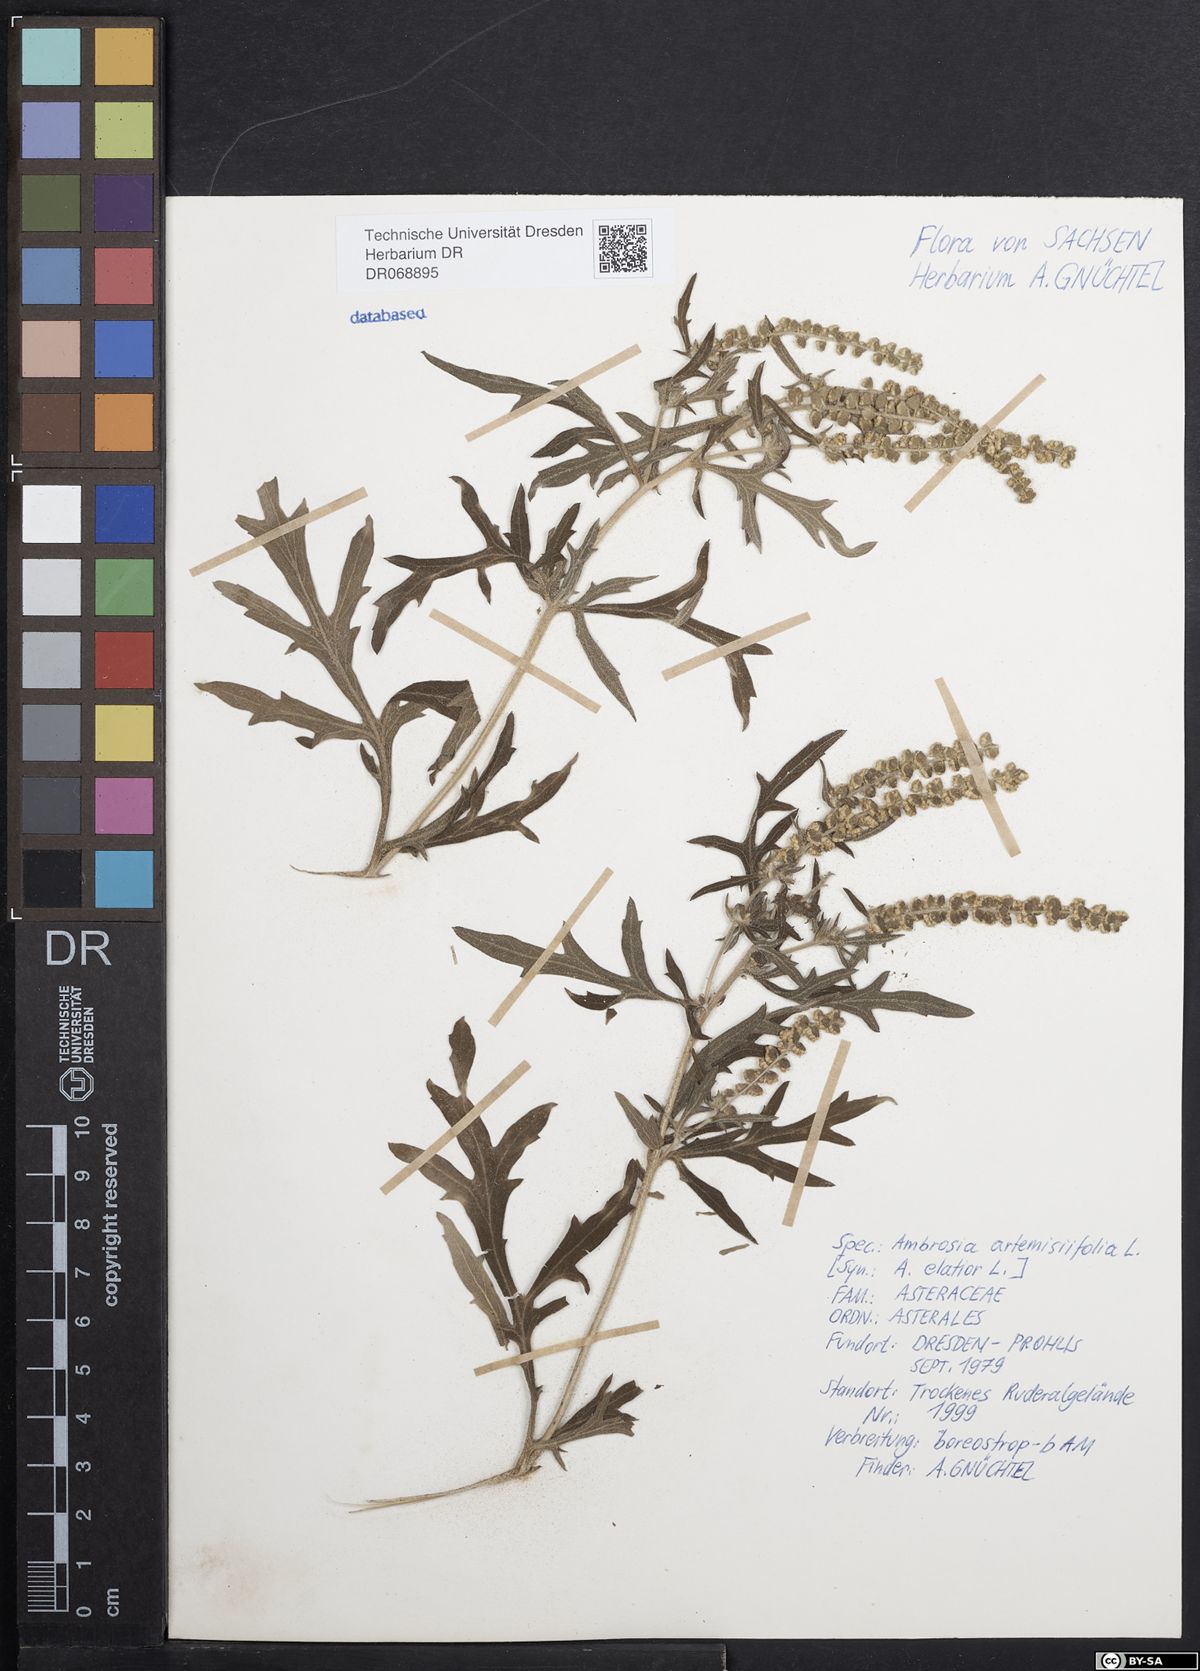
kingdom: Plantae
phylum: Tracheophyta
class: Magnoliopsida
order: Asterales
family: Asteraceae
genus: Ambrosia
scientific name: Ambrosia artemisiifolia
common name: Annual ragweed
